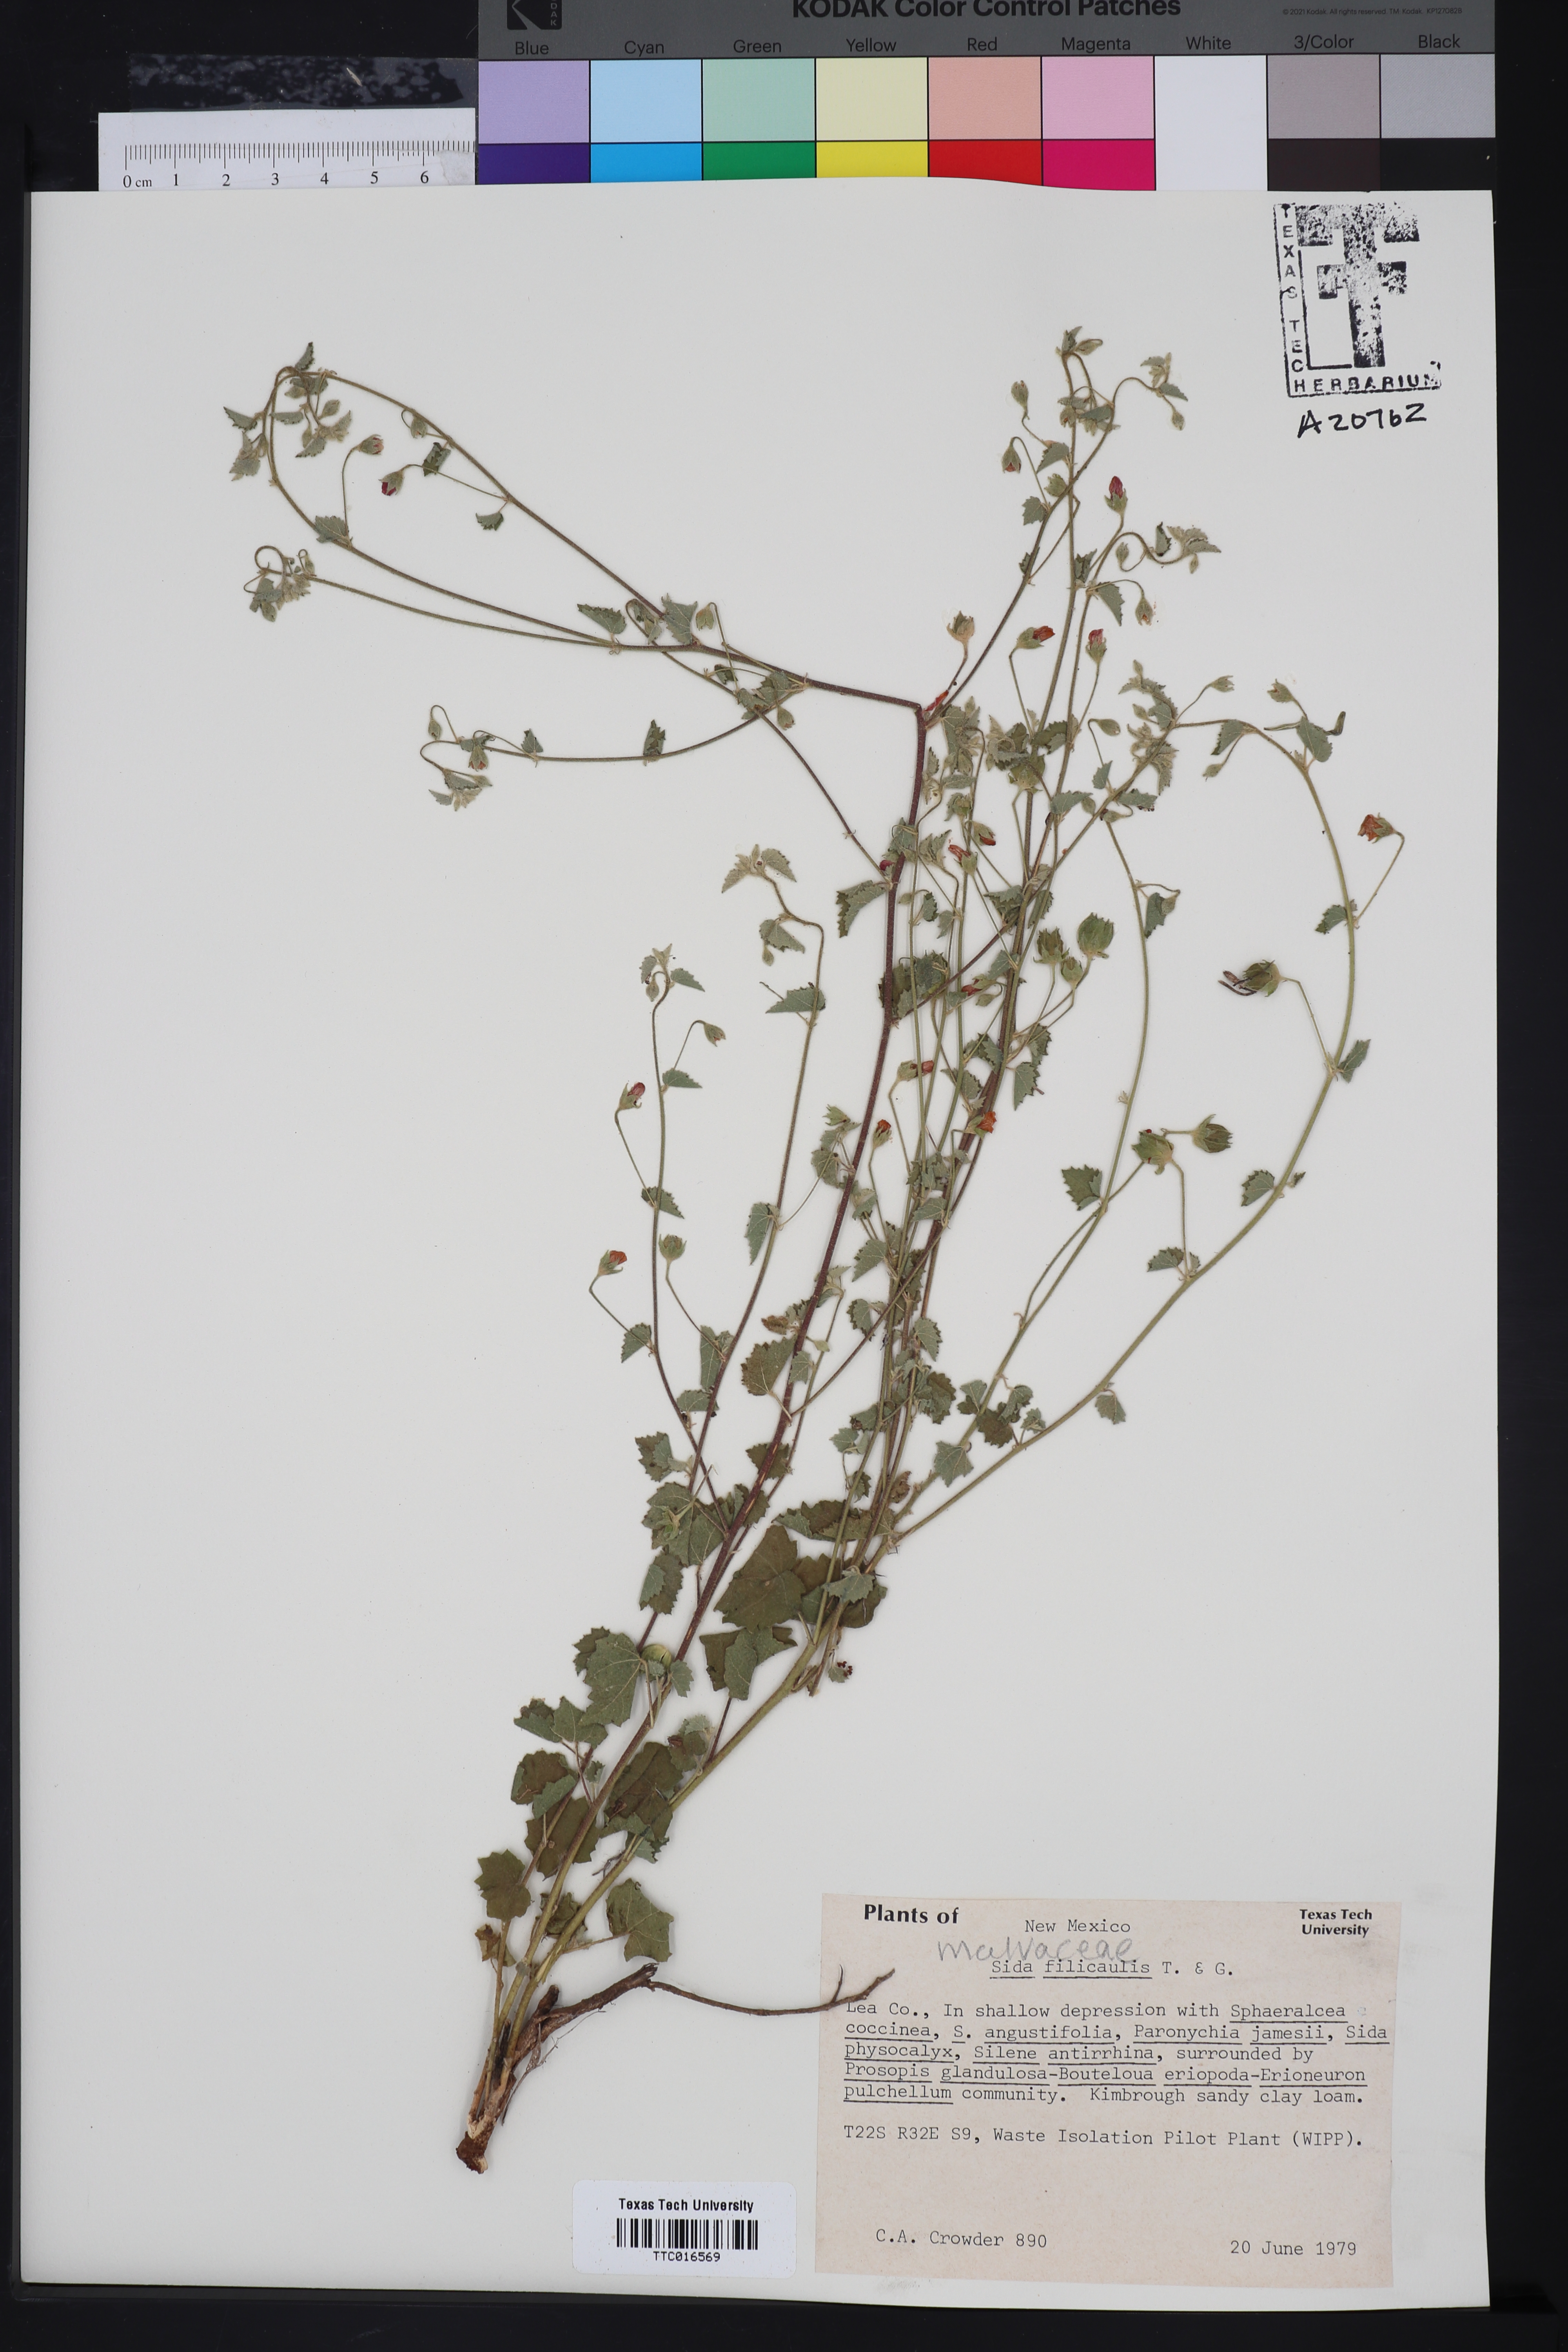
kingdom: Plantae
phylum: Tracheophyta
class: Magnoliopsida
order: Malvales
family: Malvaceae
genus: Sida
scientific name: Sida abutilifolia
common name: Spreading fanpetals
